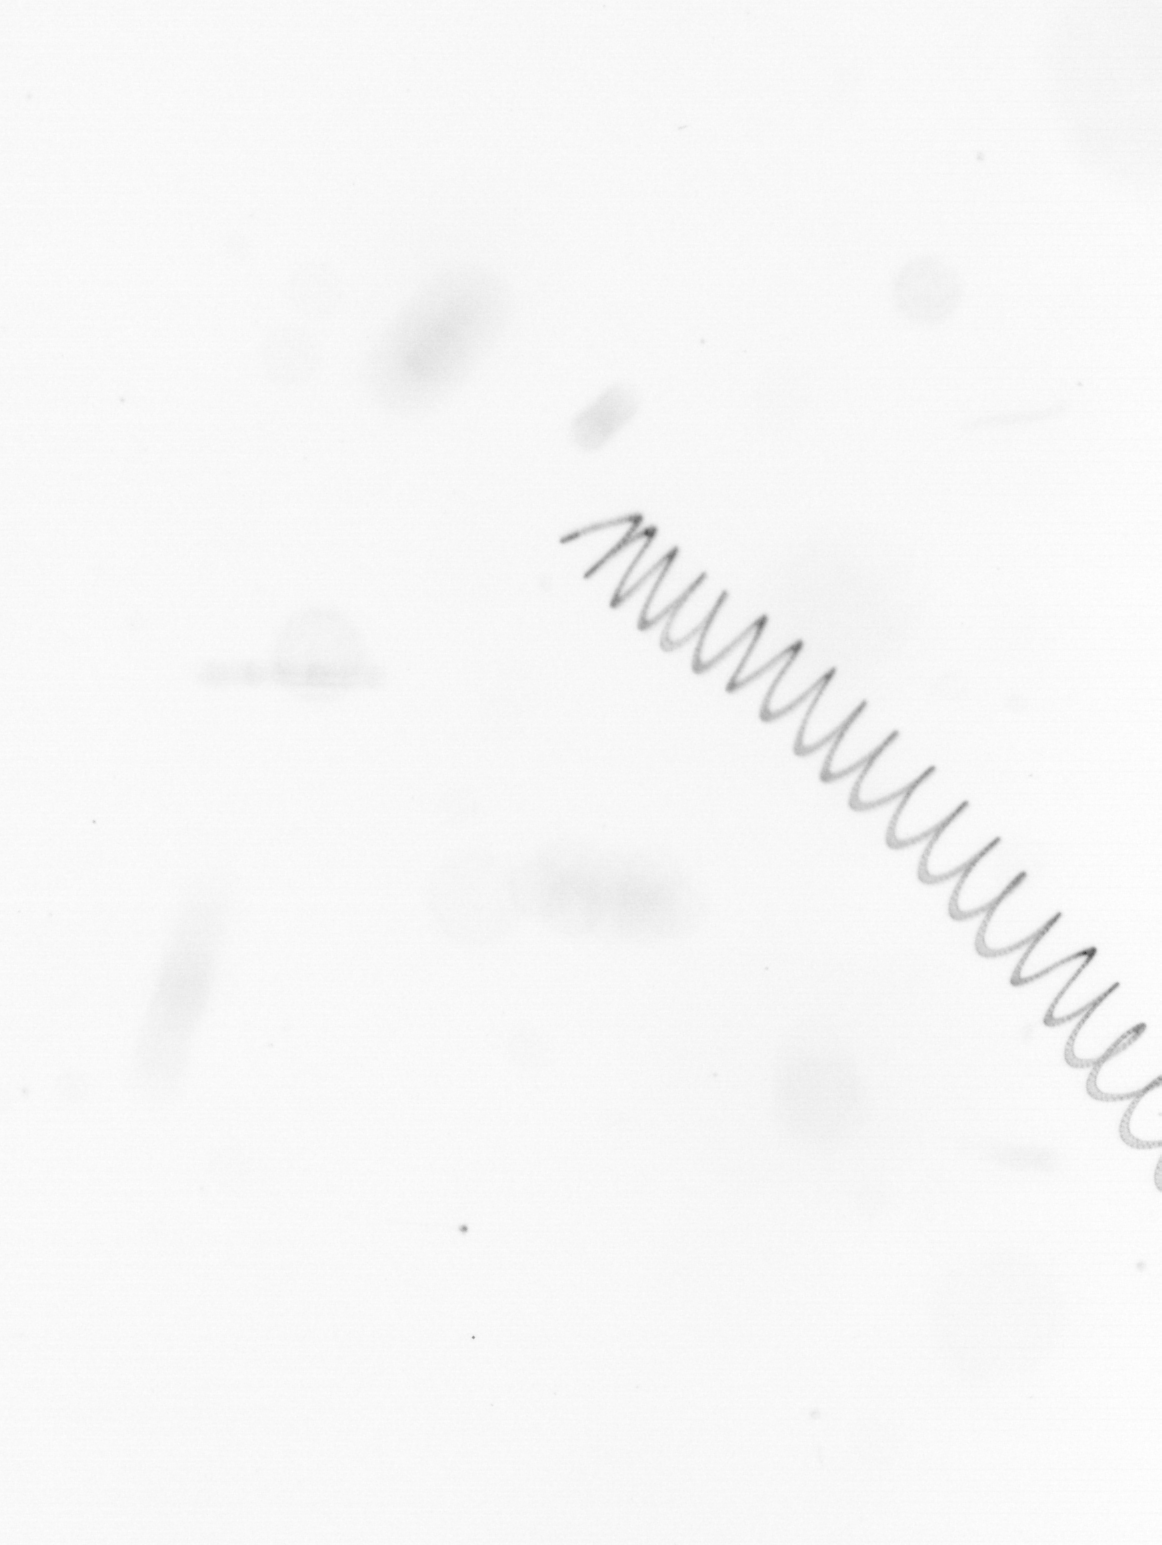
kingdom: Chromista
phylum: Ochrophyta
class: Bacillariophyceae
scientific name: Bacillariophyceae
